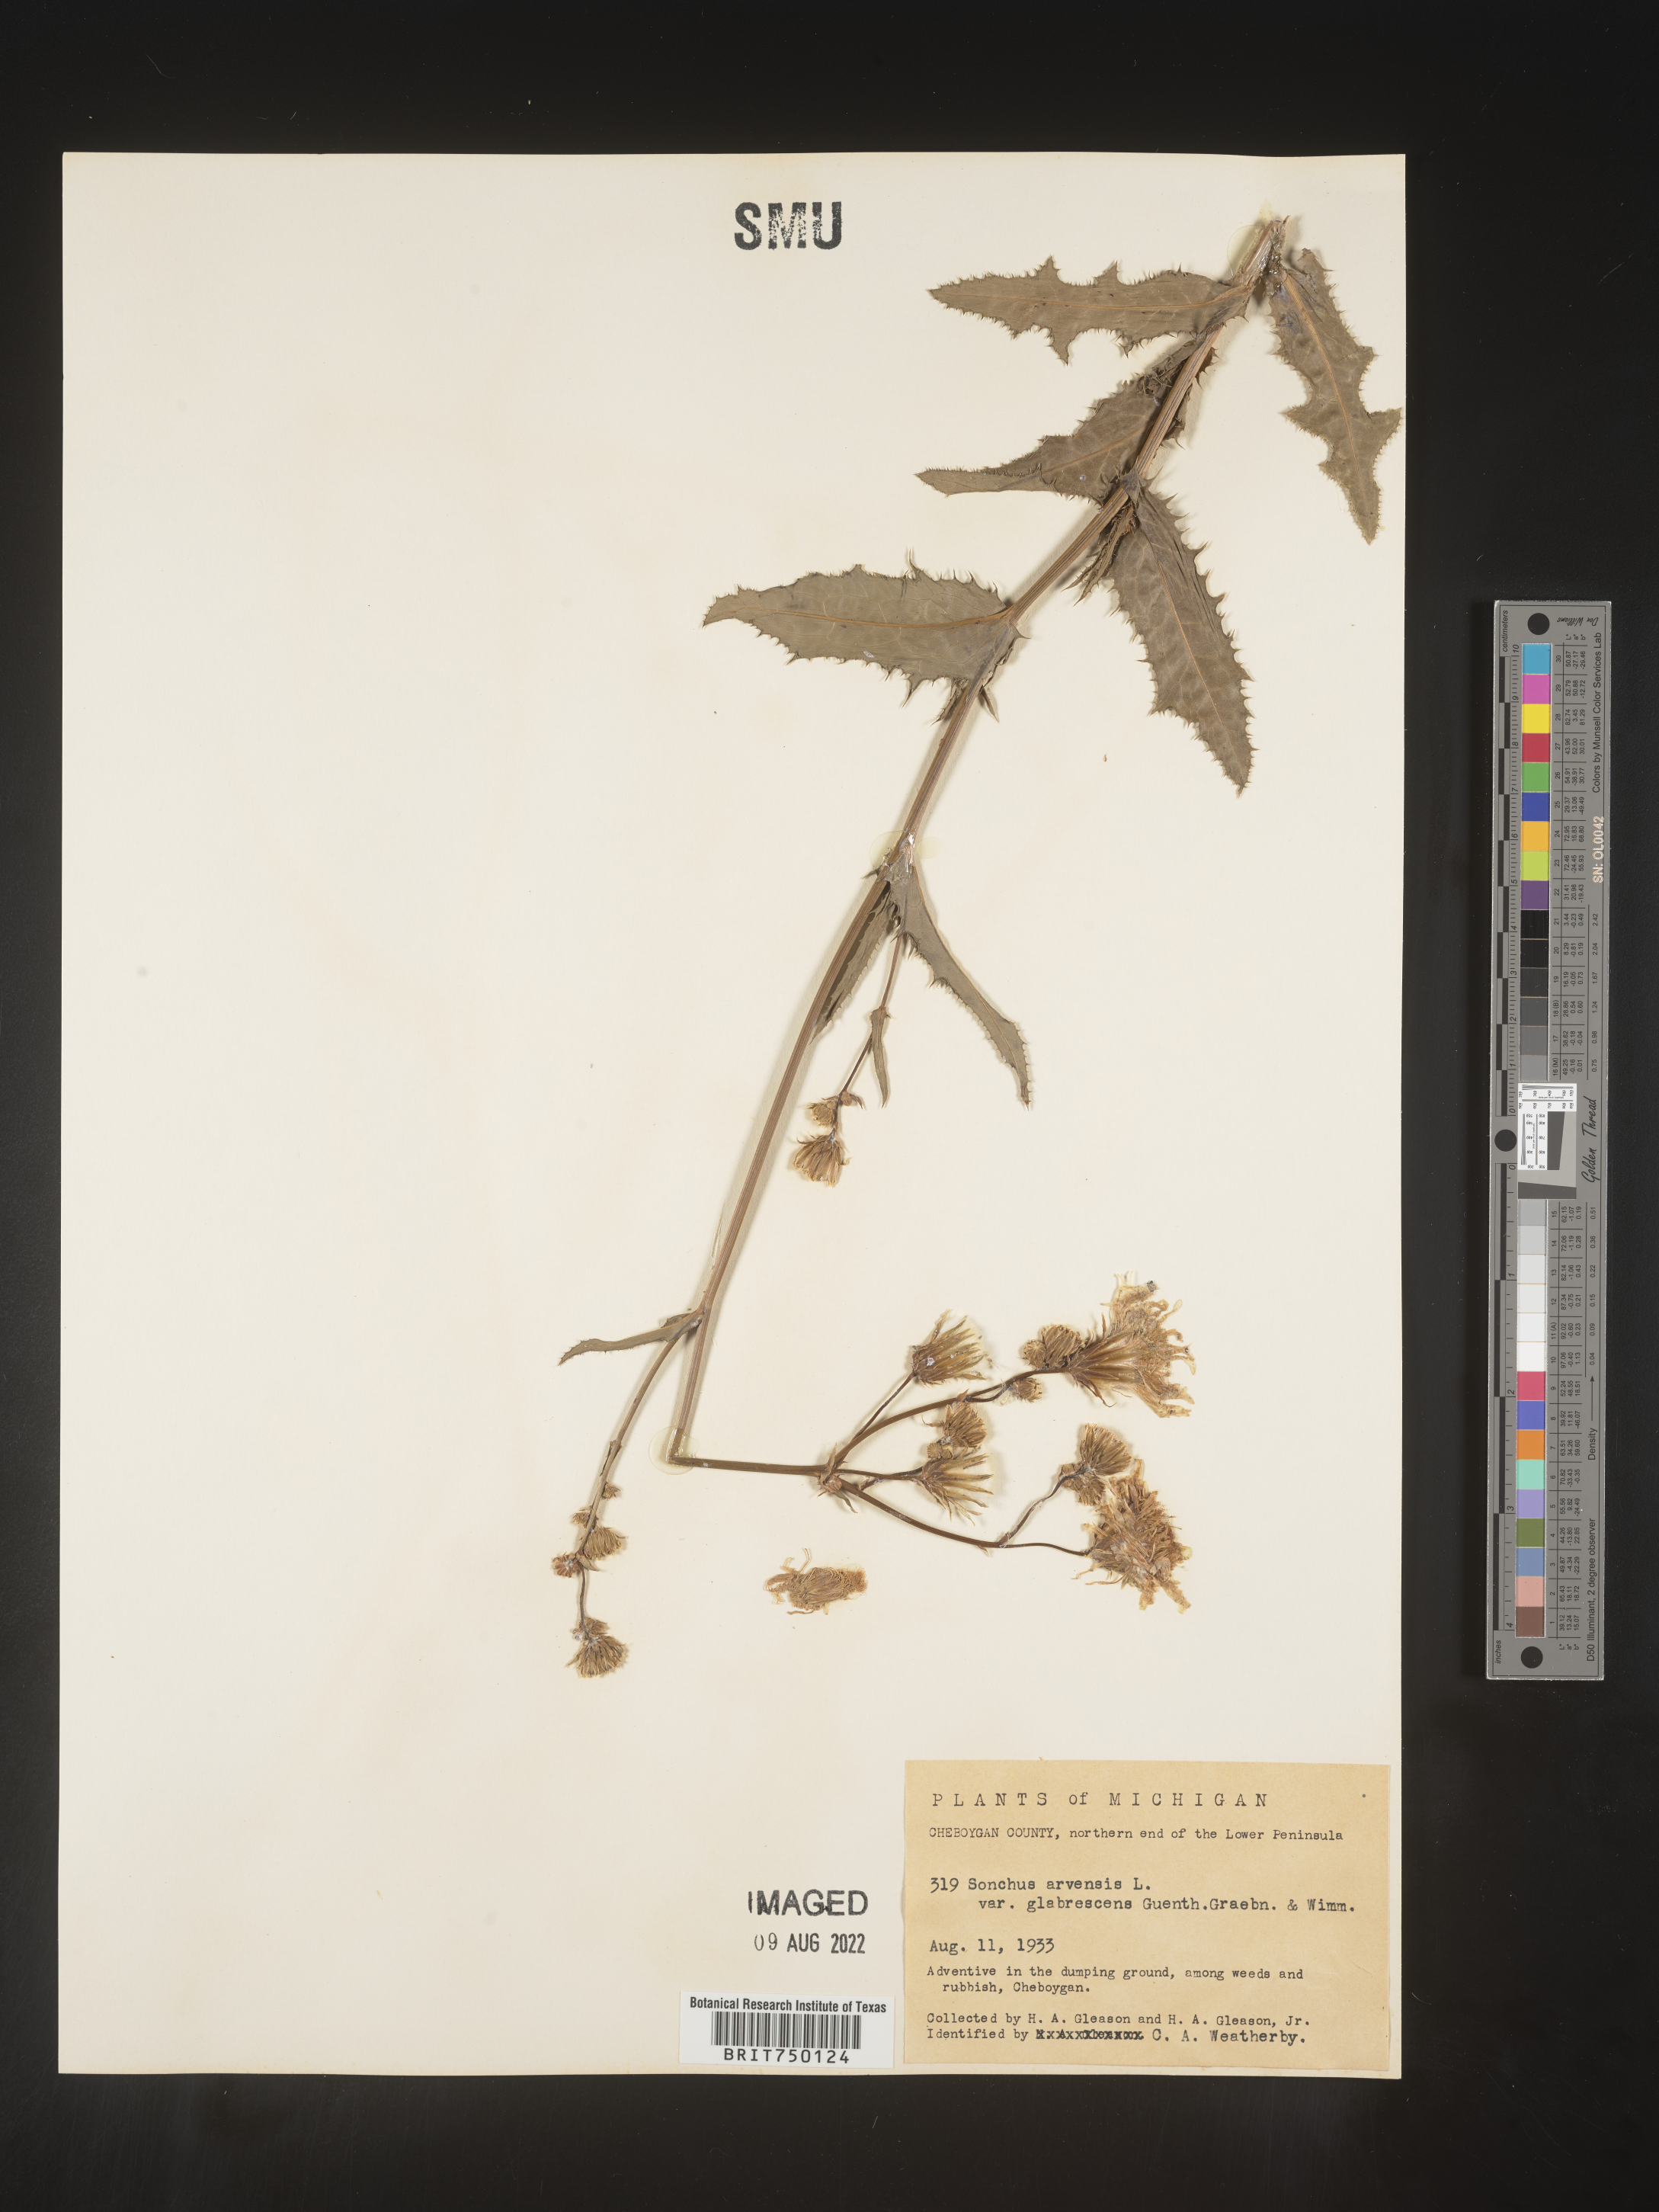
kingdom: Plantae
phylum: Tracheophyta
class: Magnoliopsida
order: Asterales
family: Asteraceae
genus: Sonchus
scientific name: Sonchus arvensis
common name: Perennial sow-thistle
